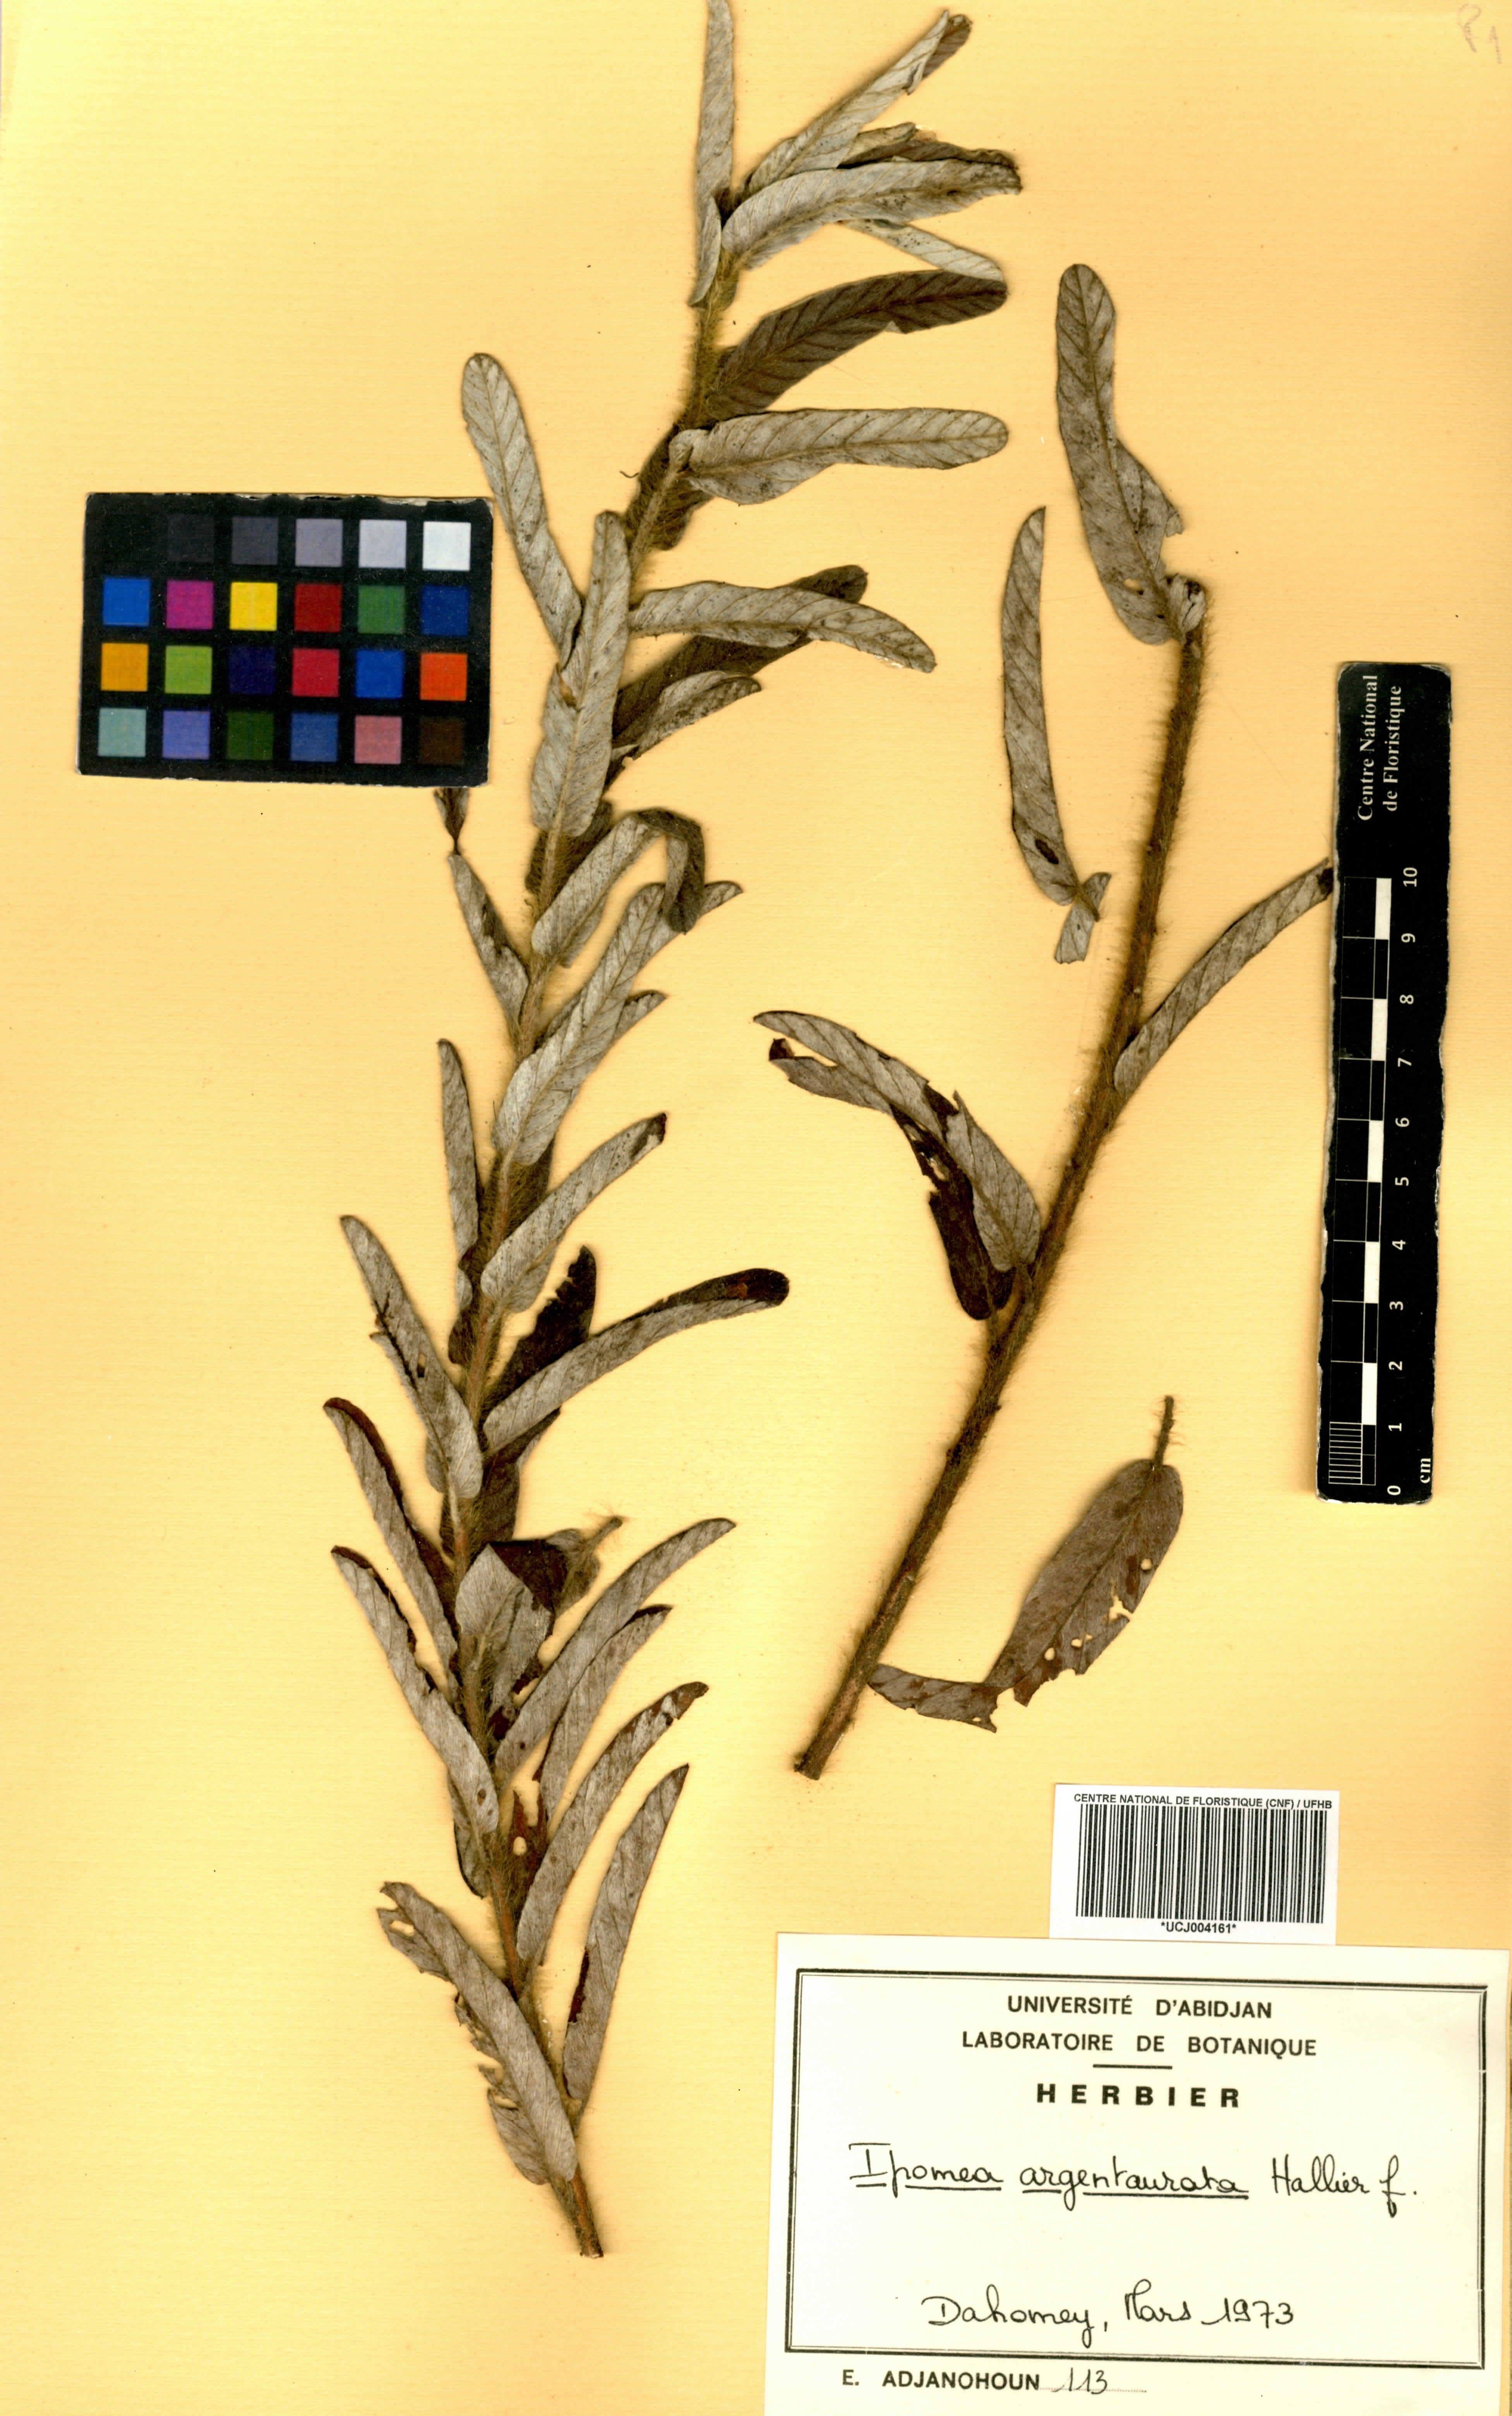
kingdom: Plantae
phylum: Tracheophyta
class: Magnoliopsida
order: Solanales
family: Convolvulaceae
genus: Ipomoea
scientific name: Ipomoea argentaurata
